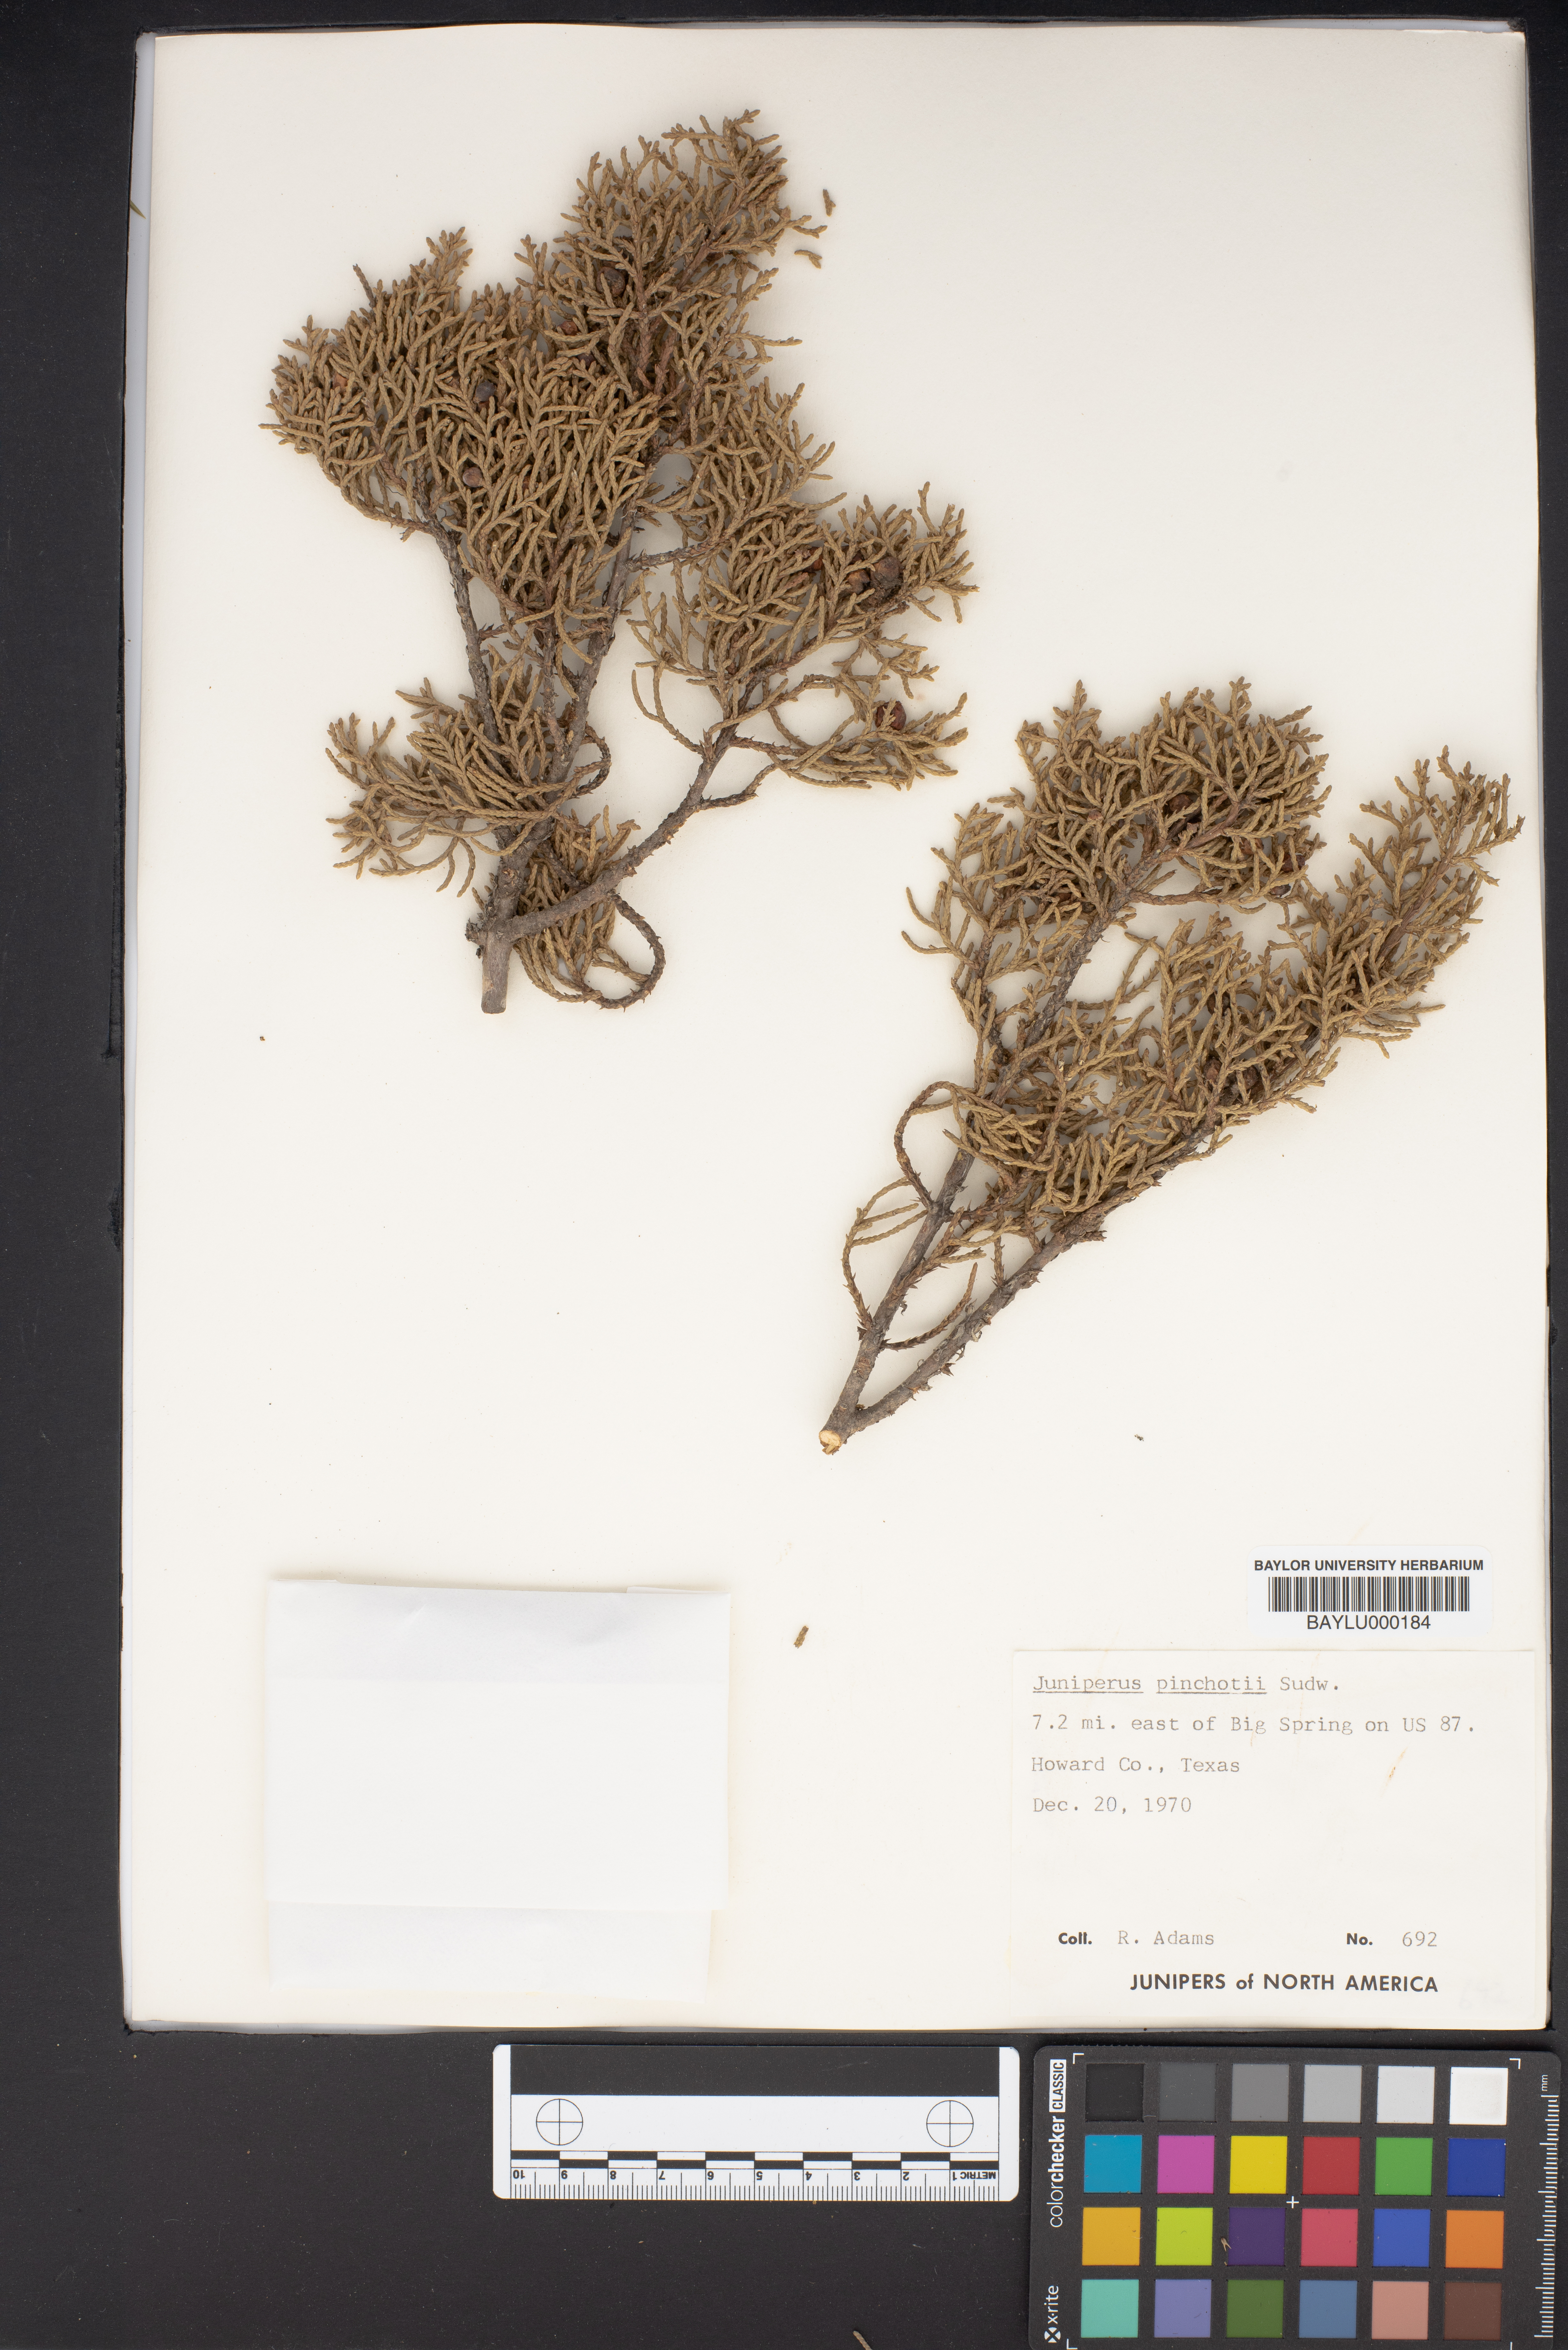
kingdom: Plantae
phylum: Tracheophyta
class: Pinopsida
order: Pinales
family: Cupressaceae
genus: Juniperus
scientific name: Juniperus pinchotii
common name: Pinchot juniper
